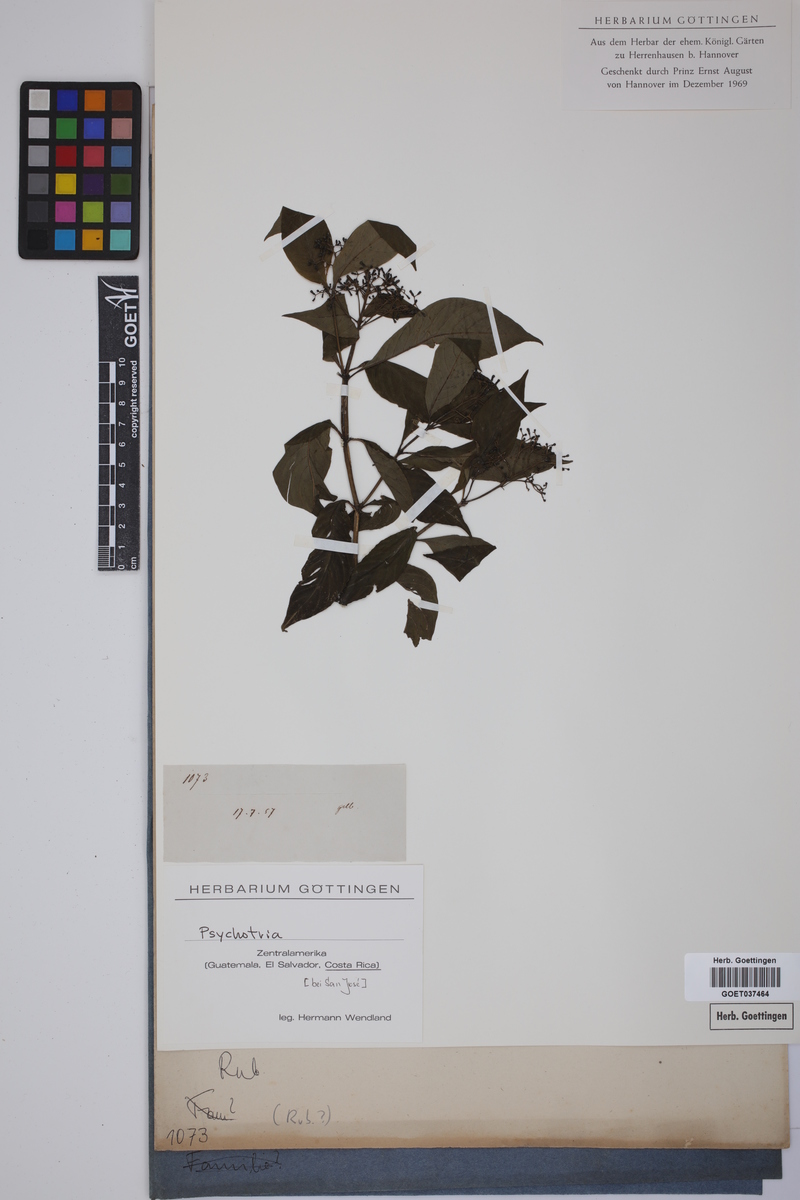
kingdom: Plantae
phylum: Tracheophyta
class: Magnoliopsida
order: Gentianales
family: Rubiaceae
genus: Psychotria
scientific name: Psychotria
